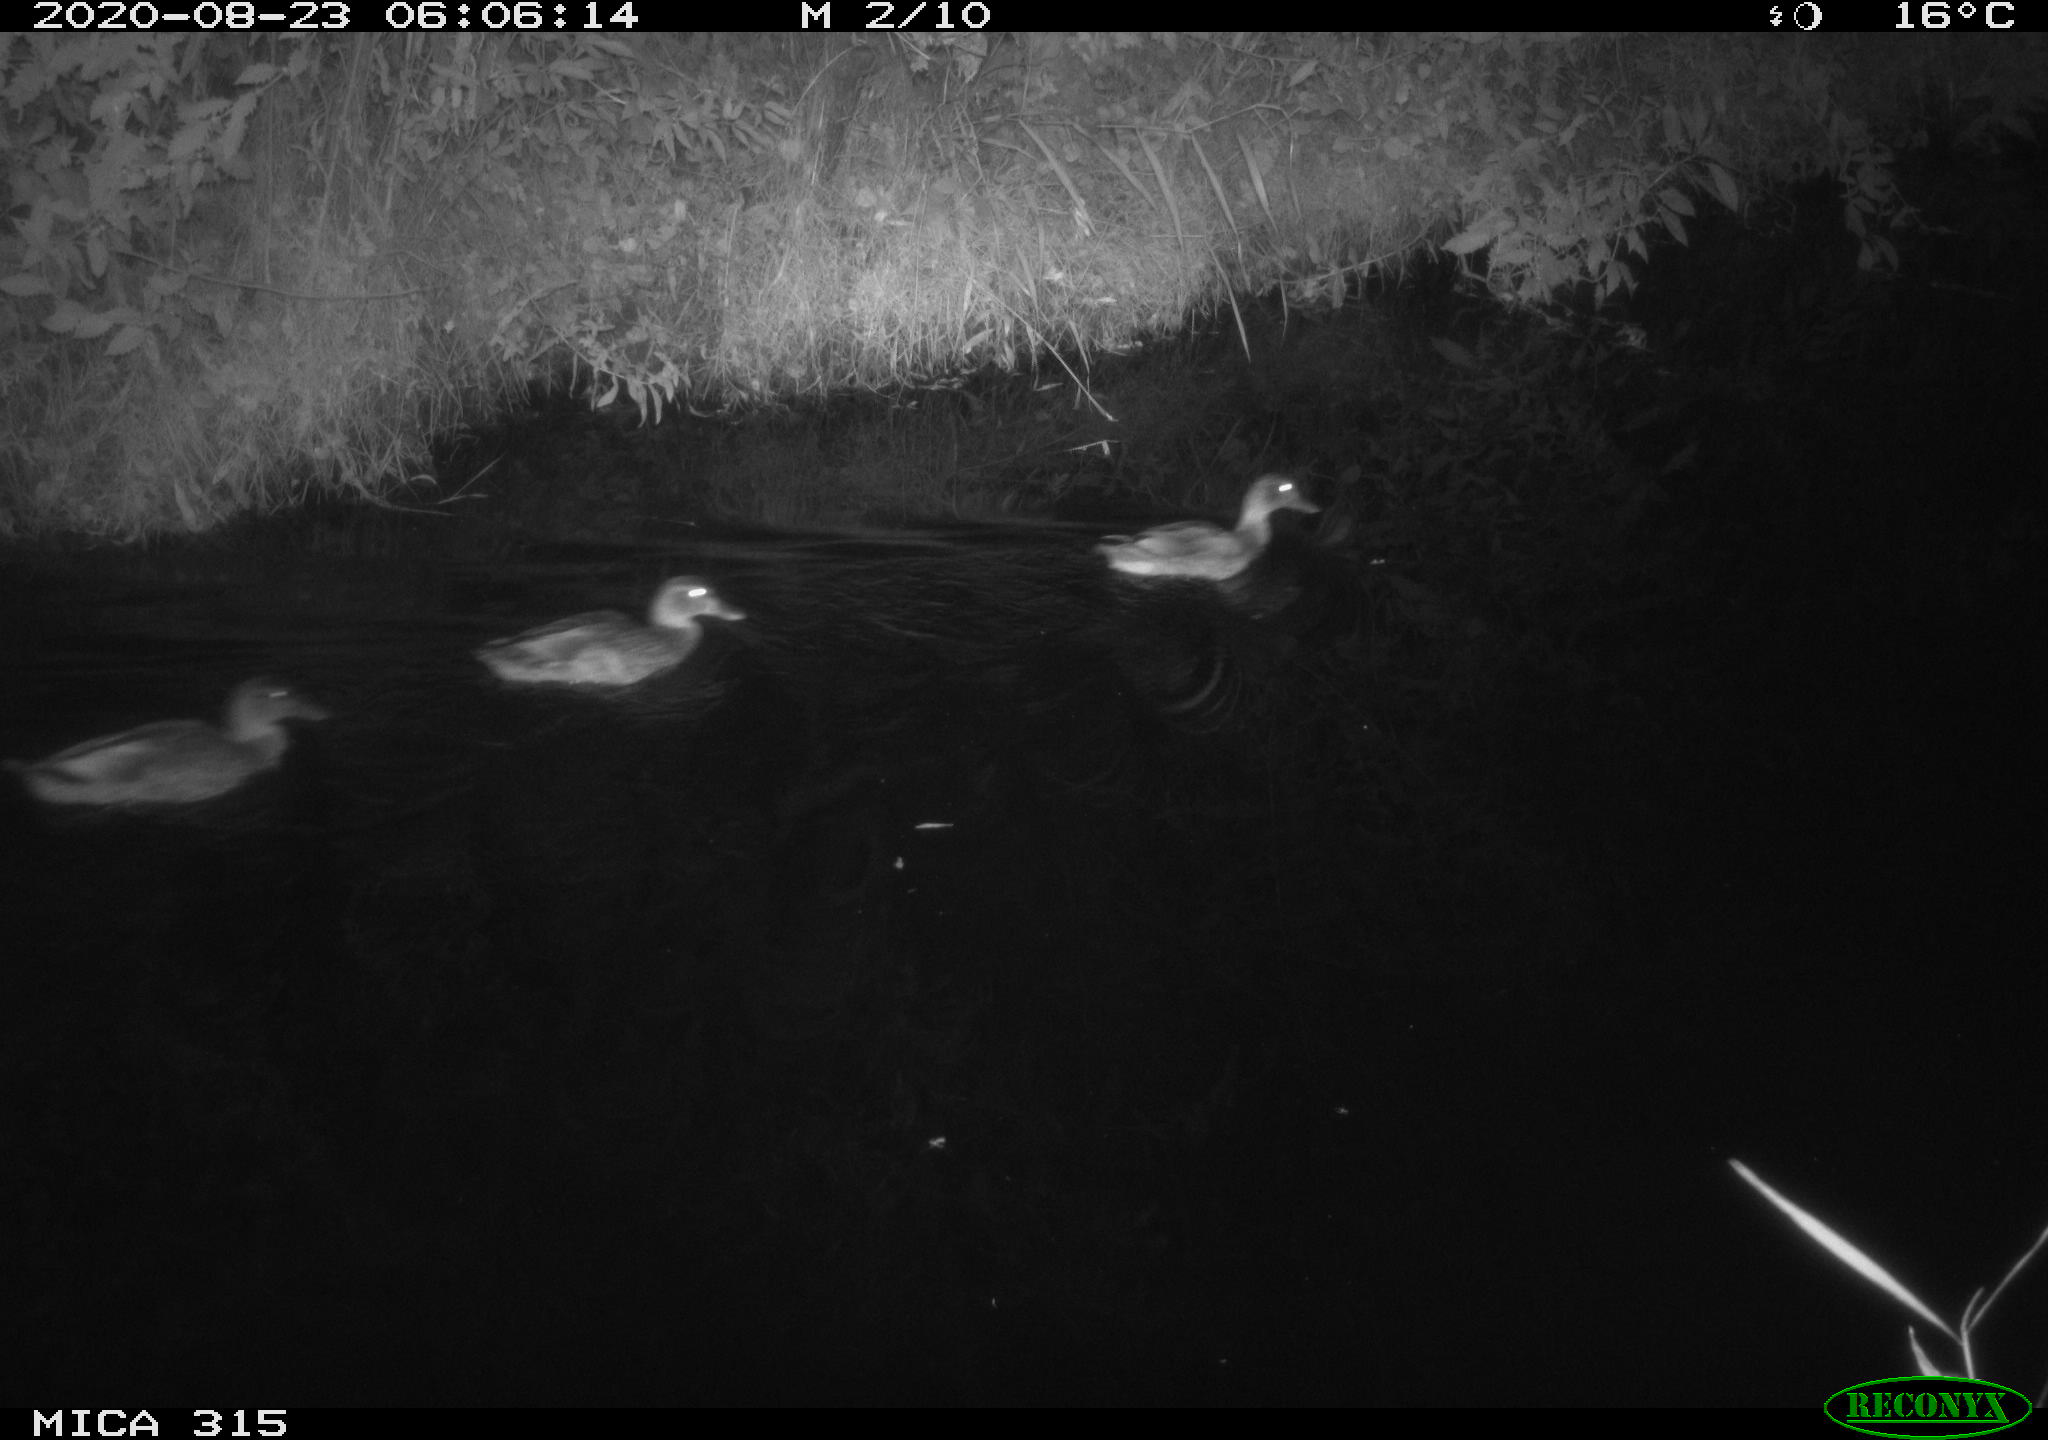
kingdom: Animalia
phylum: Chordata
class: Aves
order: Anseriformes
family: Anatidae
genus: Anas
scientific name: Anas platyrhynchos
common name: Mallard
